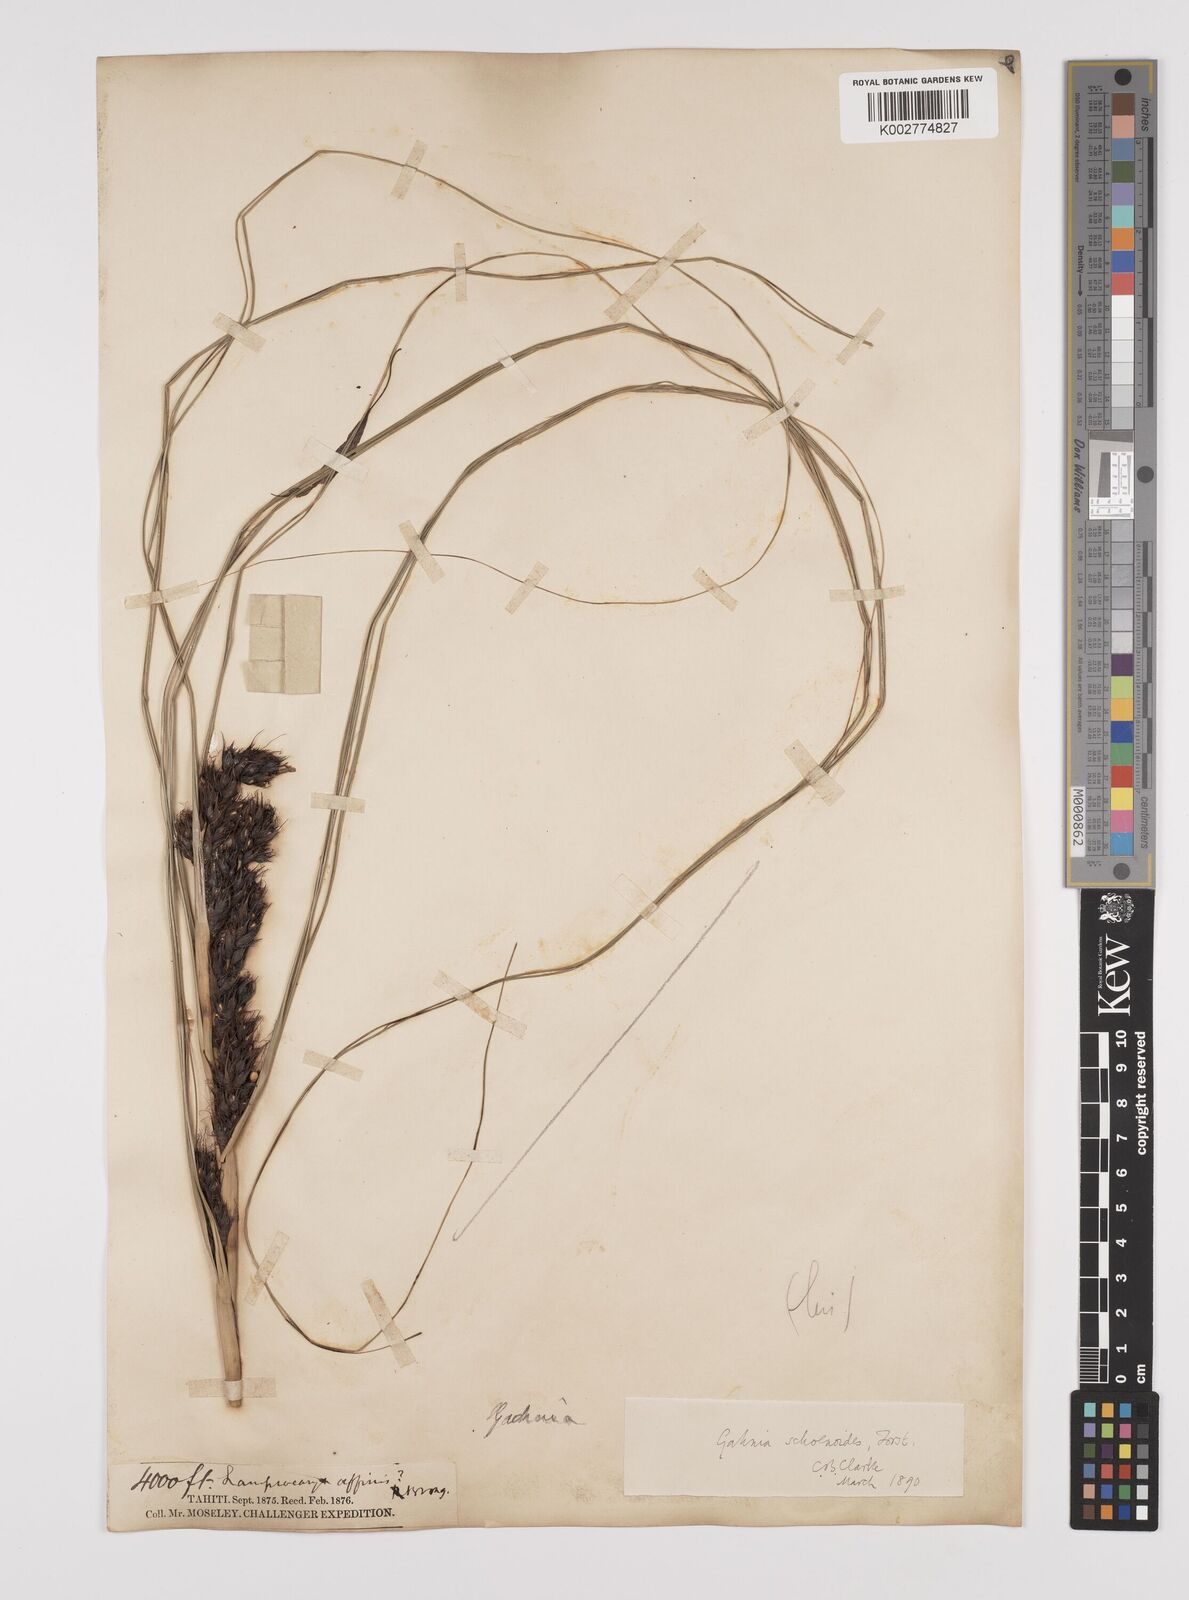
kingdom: Plantae
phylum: Tracheophyta
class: Liliopsida
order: Poales
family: Cyperaceae
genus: Gahnia
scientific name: Gahnia schoenoides
